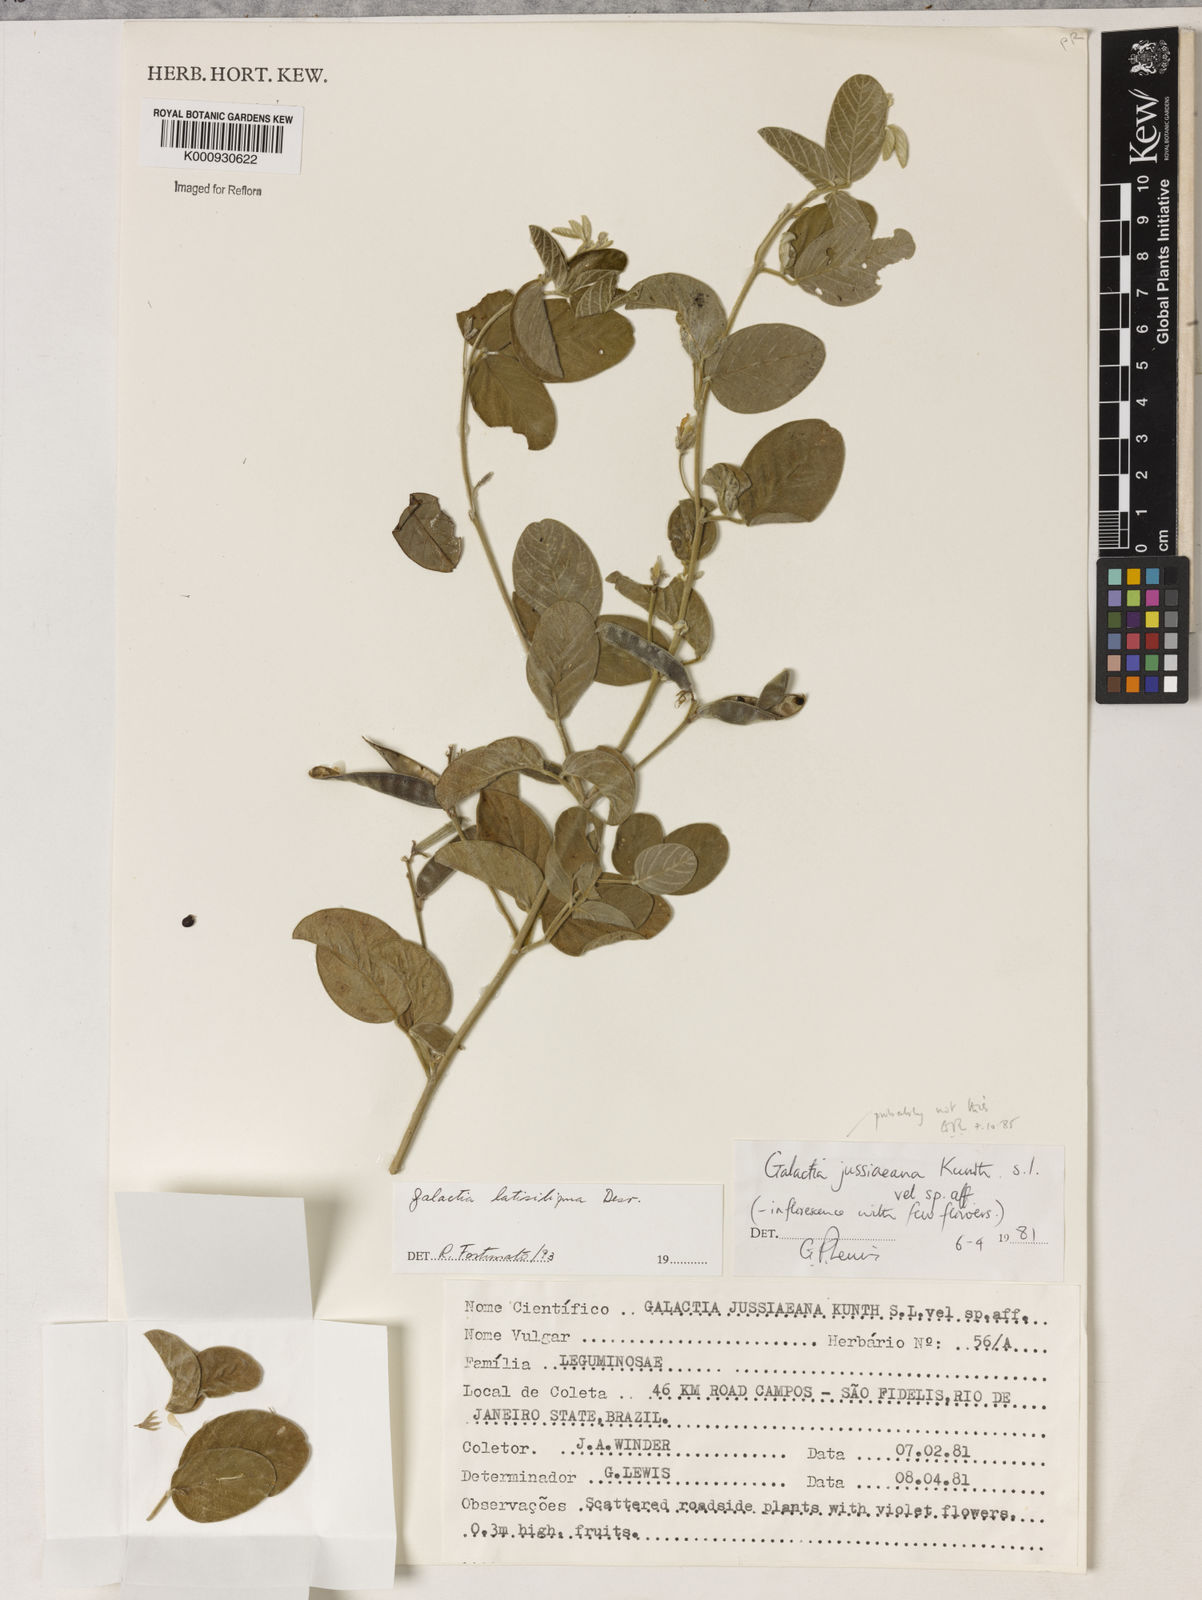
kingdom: Plantae
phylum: Tracheophyta
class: Magnoliopsida
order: Fabales
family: Fabaceae
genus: Galactia
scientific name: Galactia latisiliqua
